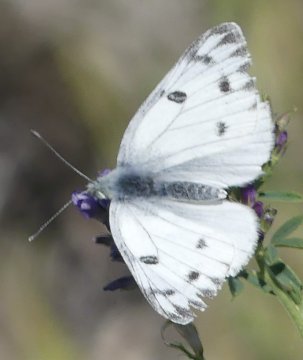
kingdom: Animalia
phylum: Arthropoda
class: Insecta
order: Lepidoptera
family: Pieridae
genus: Pontia
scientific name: Pontia occidentalis
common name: Western White
